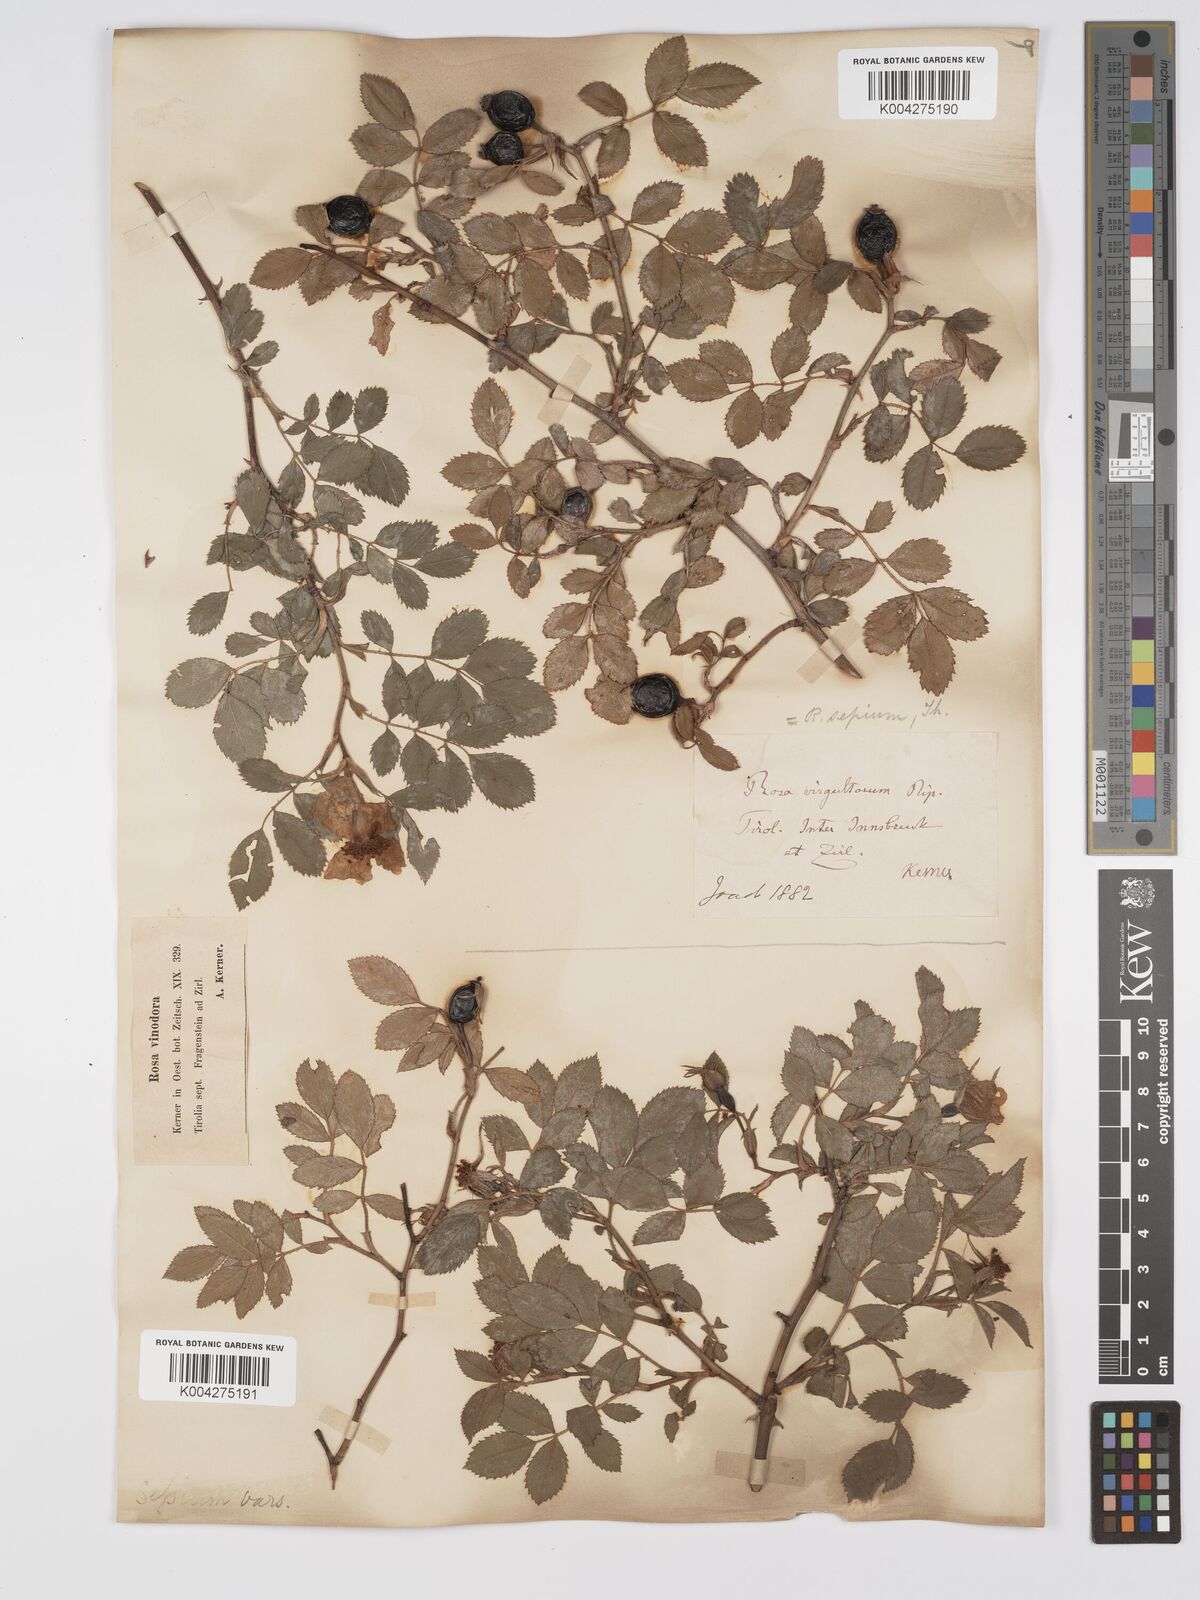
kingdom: Plantae
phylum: Tracheophyta
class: Magnoliopsida
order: Rosales
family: Rosaceae
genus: Rosa
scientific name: Rosa
